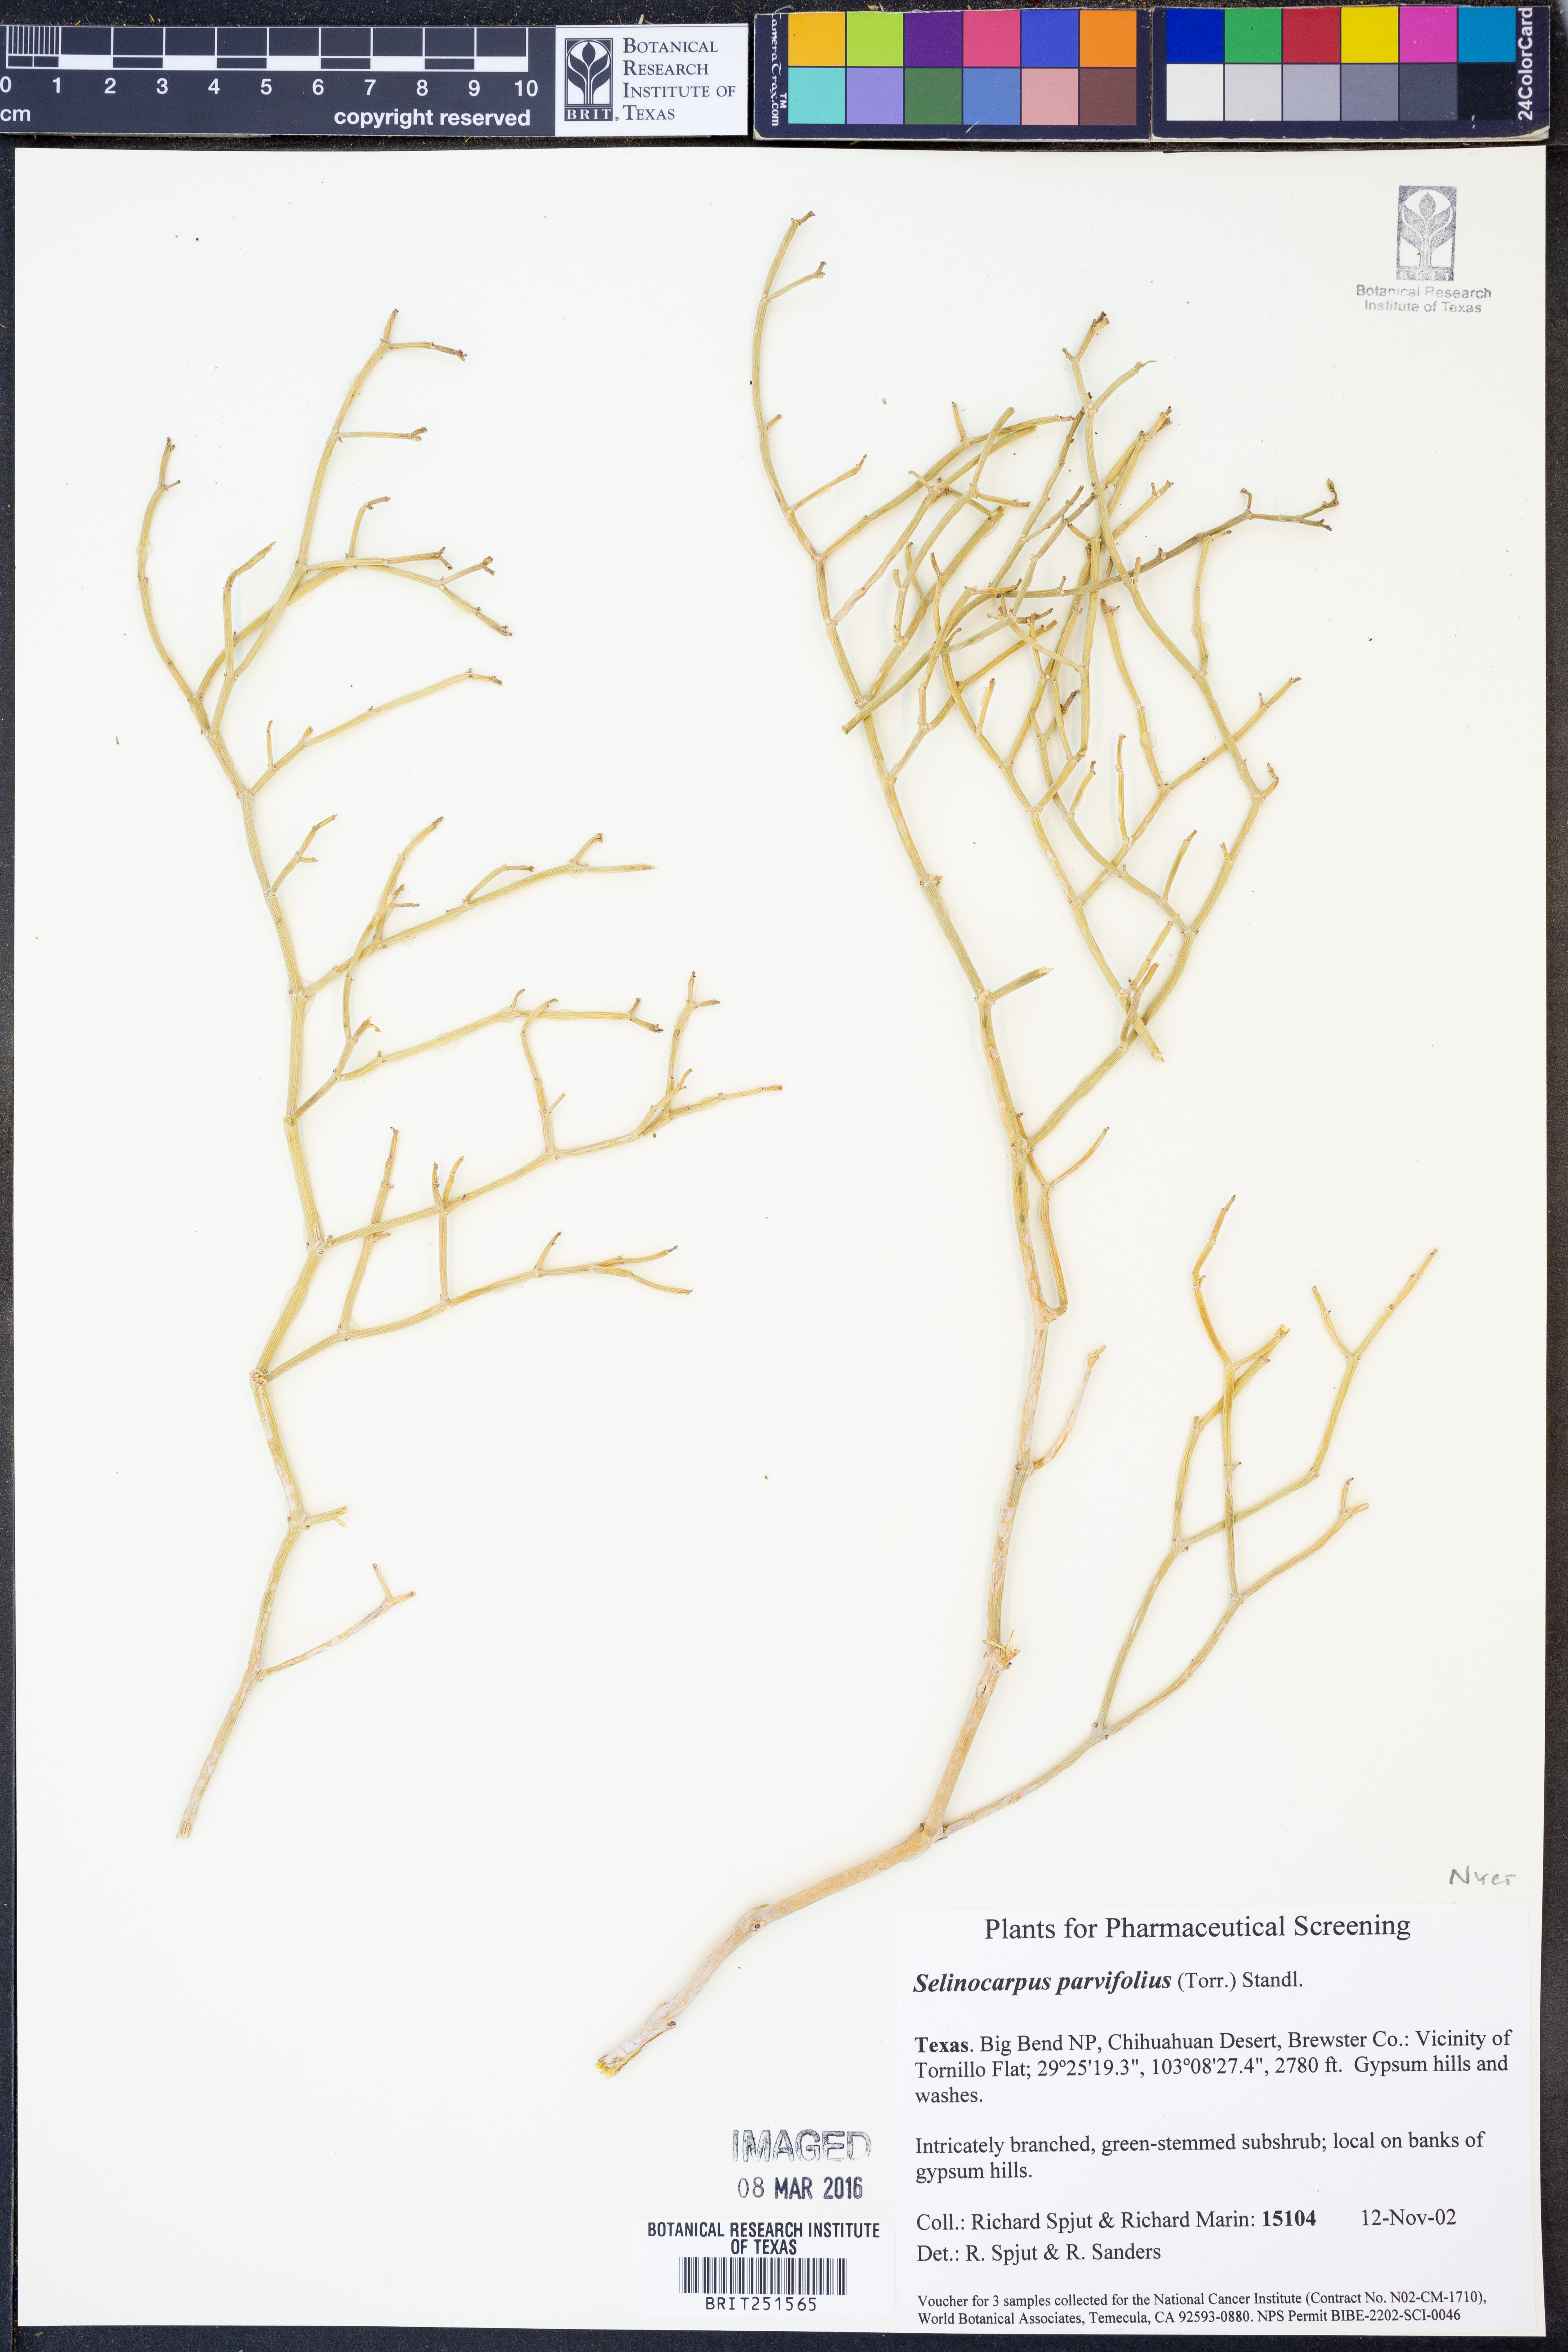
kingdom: Plantae
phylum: Tracheophyta
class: Magnoliopsida
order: Caryophyllales
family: Nyctaginaceae
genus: Acleisanthes
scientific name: Acleisanthes parvifolia
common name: Littleleaf moonpod
